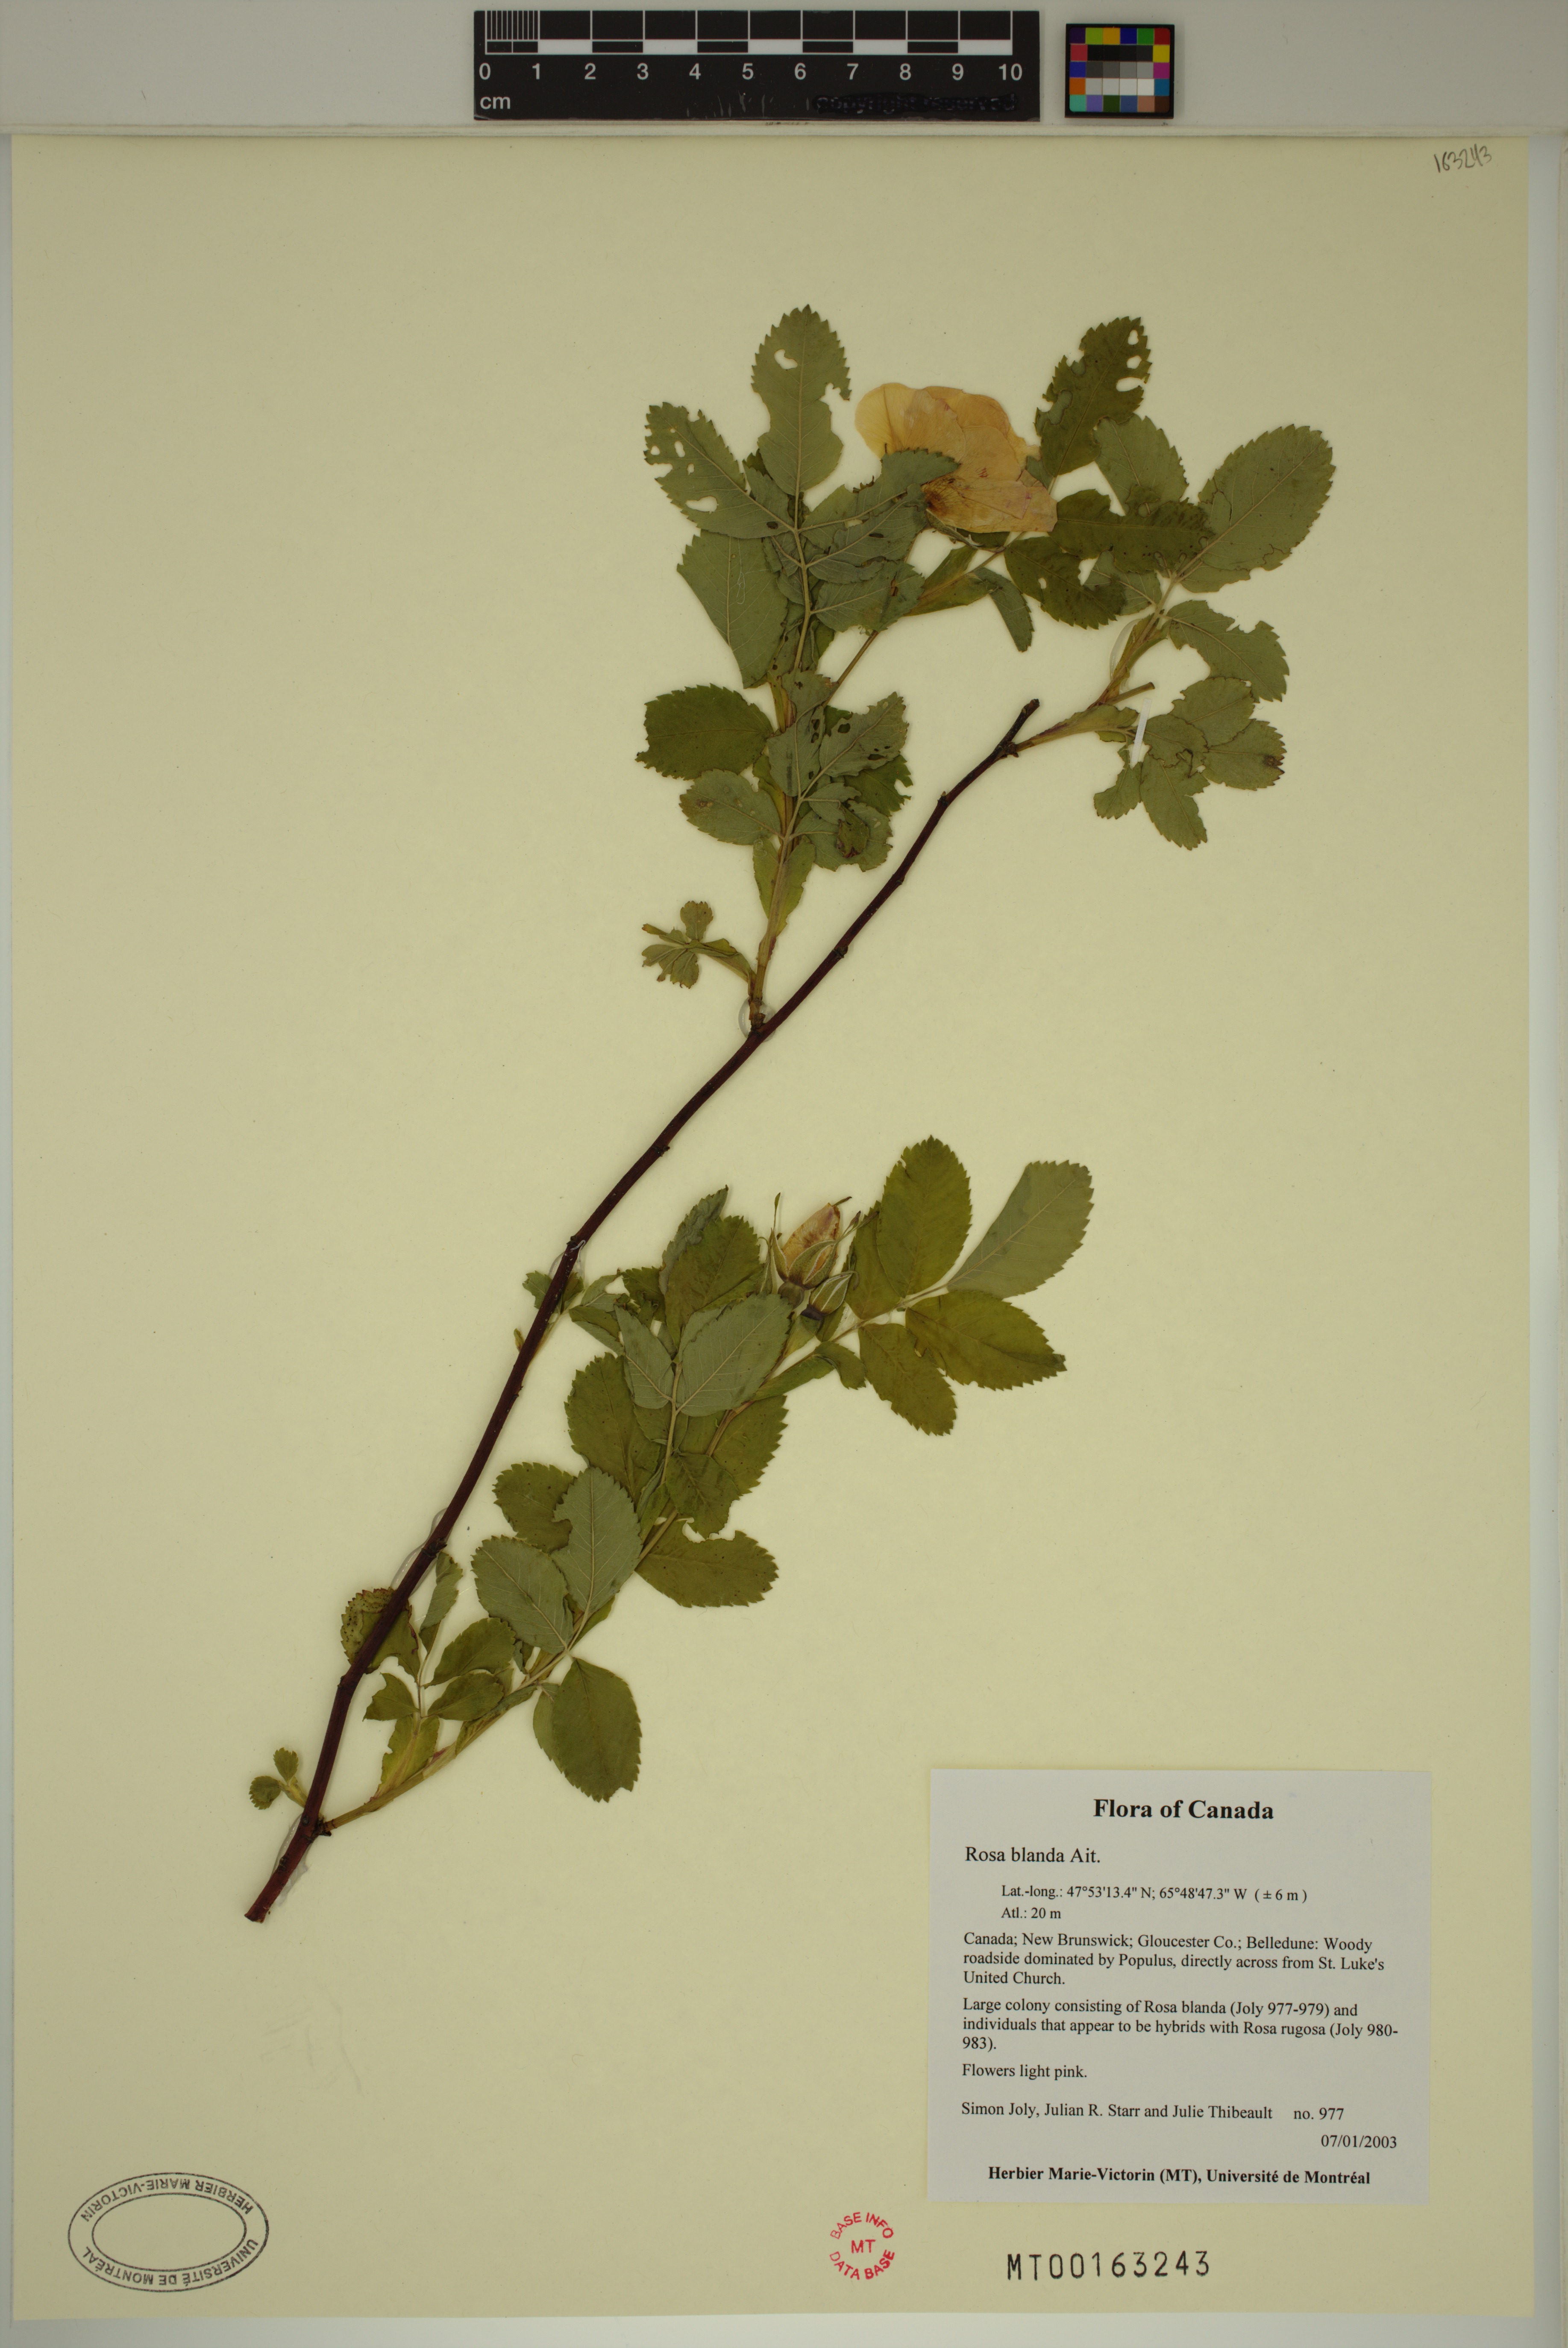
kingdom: Plantae
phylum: Tracheophyta
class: Magnoliopsida
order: Rosales
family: Rosaceae
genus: Rosa
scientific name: Rosa blanda
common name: Smooth rose
